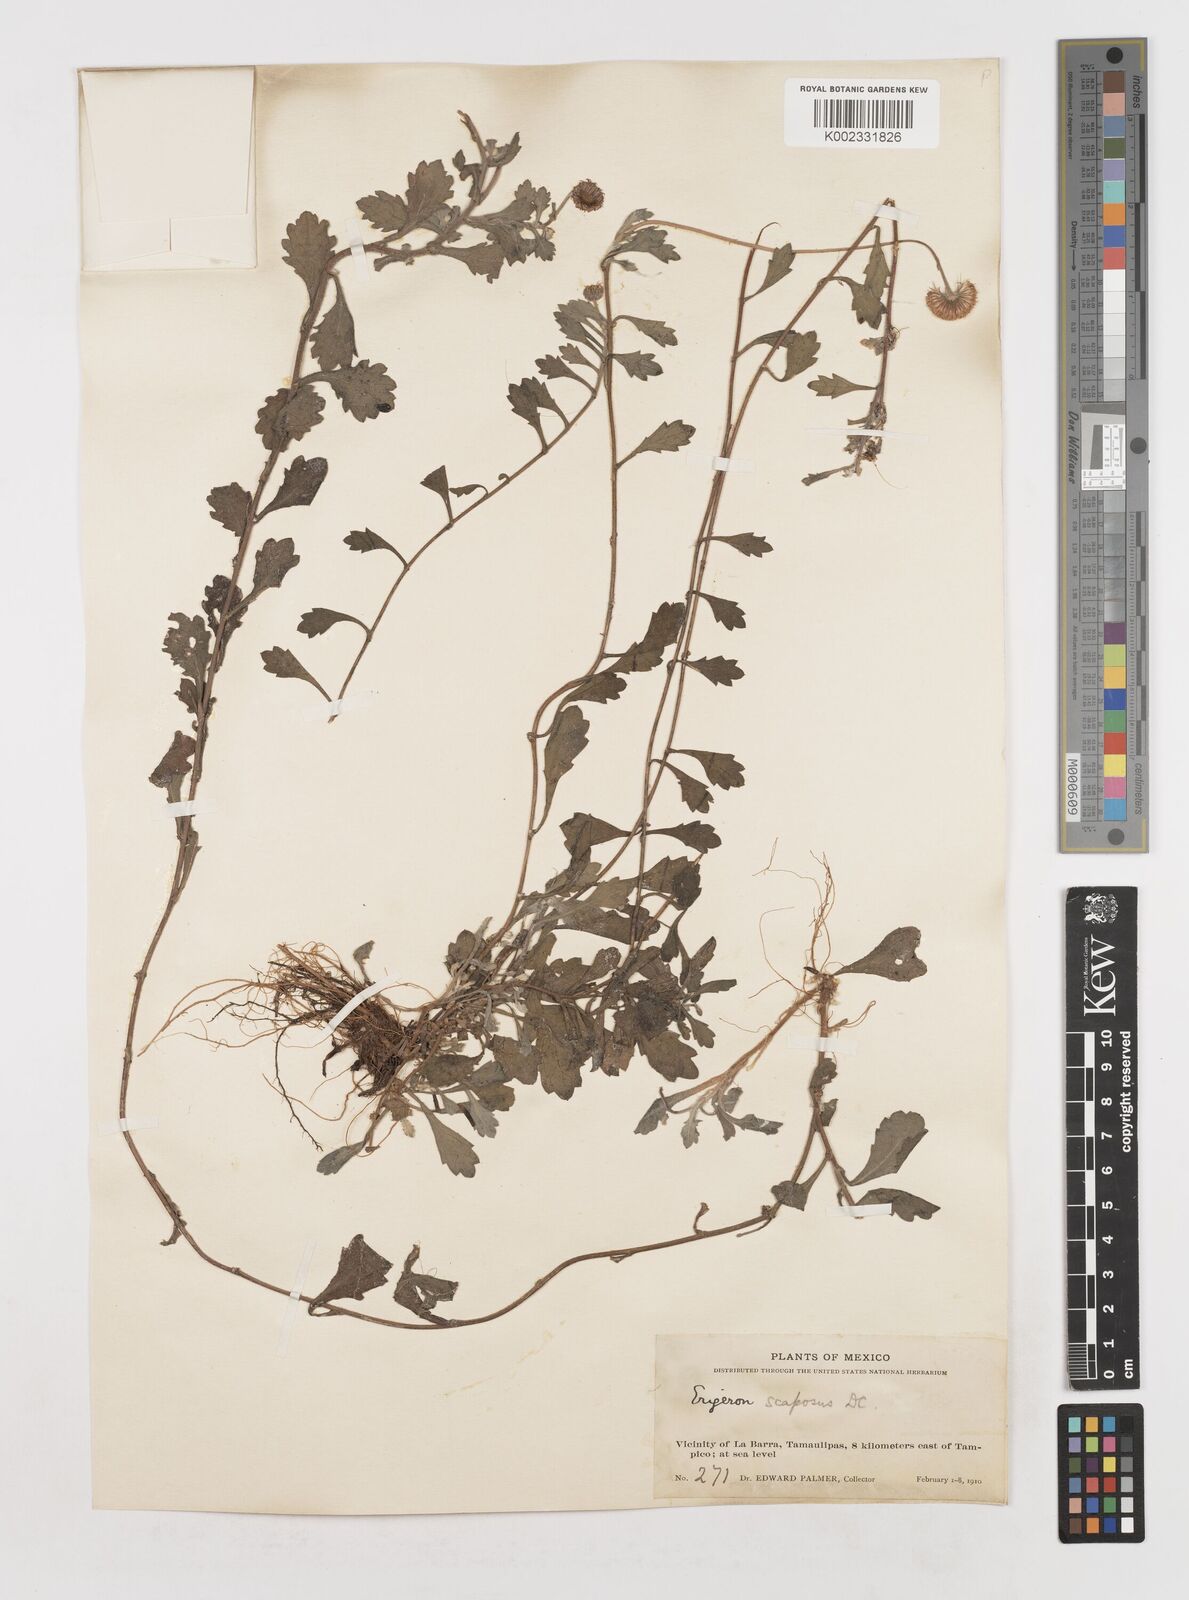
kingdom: Plantae
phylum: Tracheophyta
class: Magnoliopsida
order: Asterales
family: Asteraceae
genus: Erigeron
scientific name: Erigeron longipes
